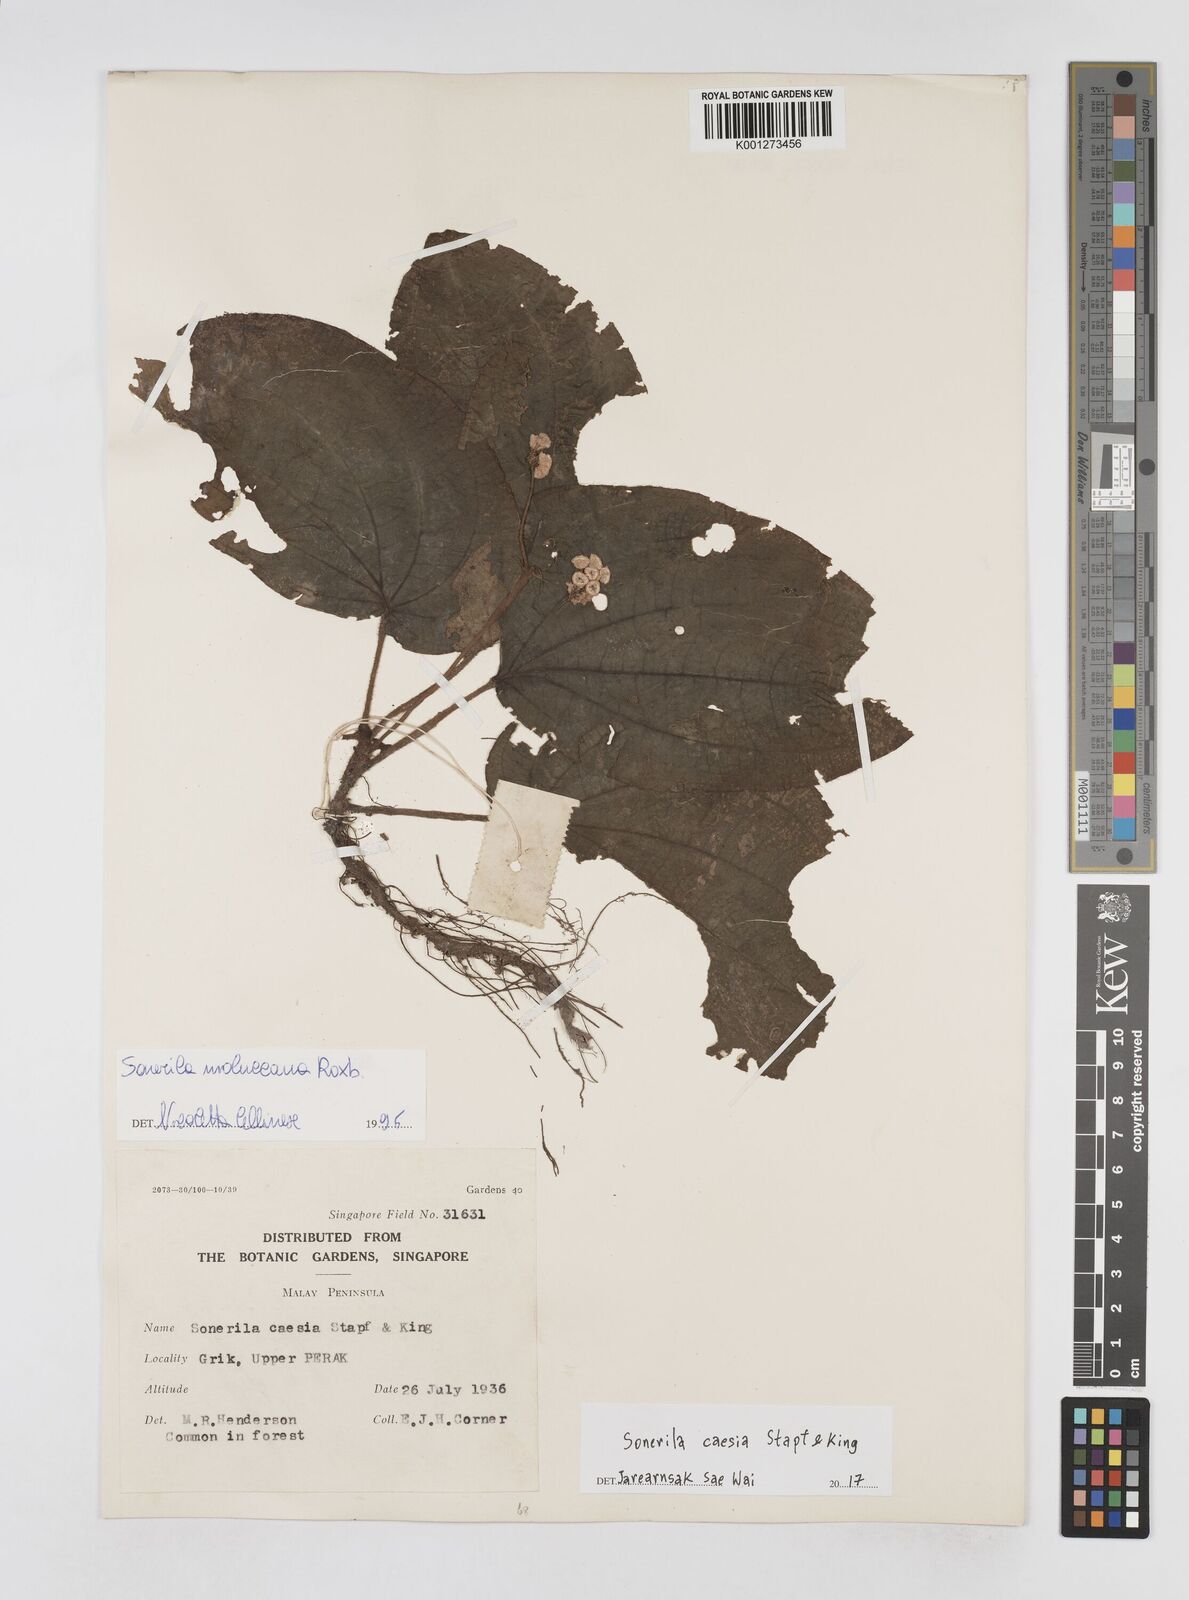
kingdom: Plantae
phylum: Tracheophyta
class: Magnoliopsida
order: Myrtales
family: Melastomataceae
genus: Sonerila
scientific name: Sonerila moluccana
